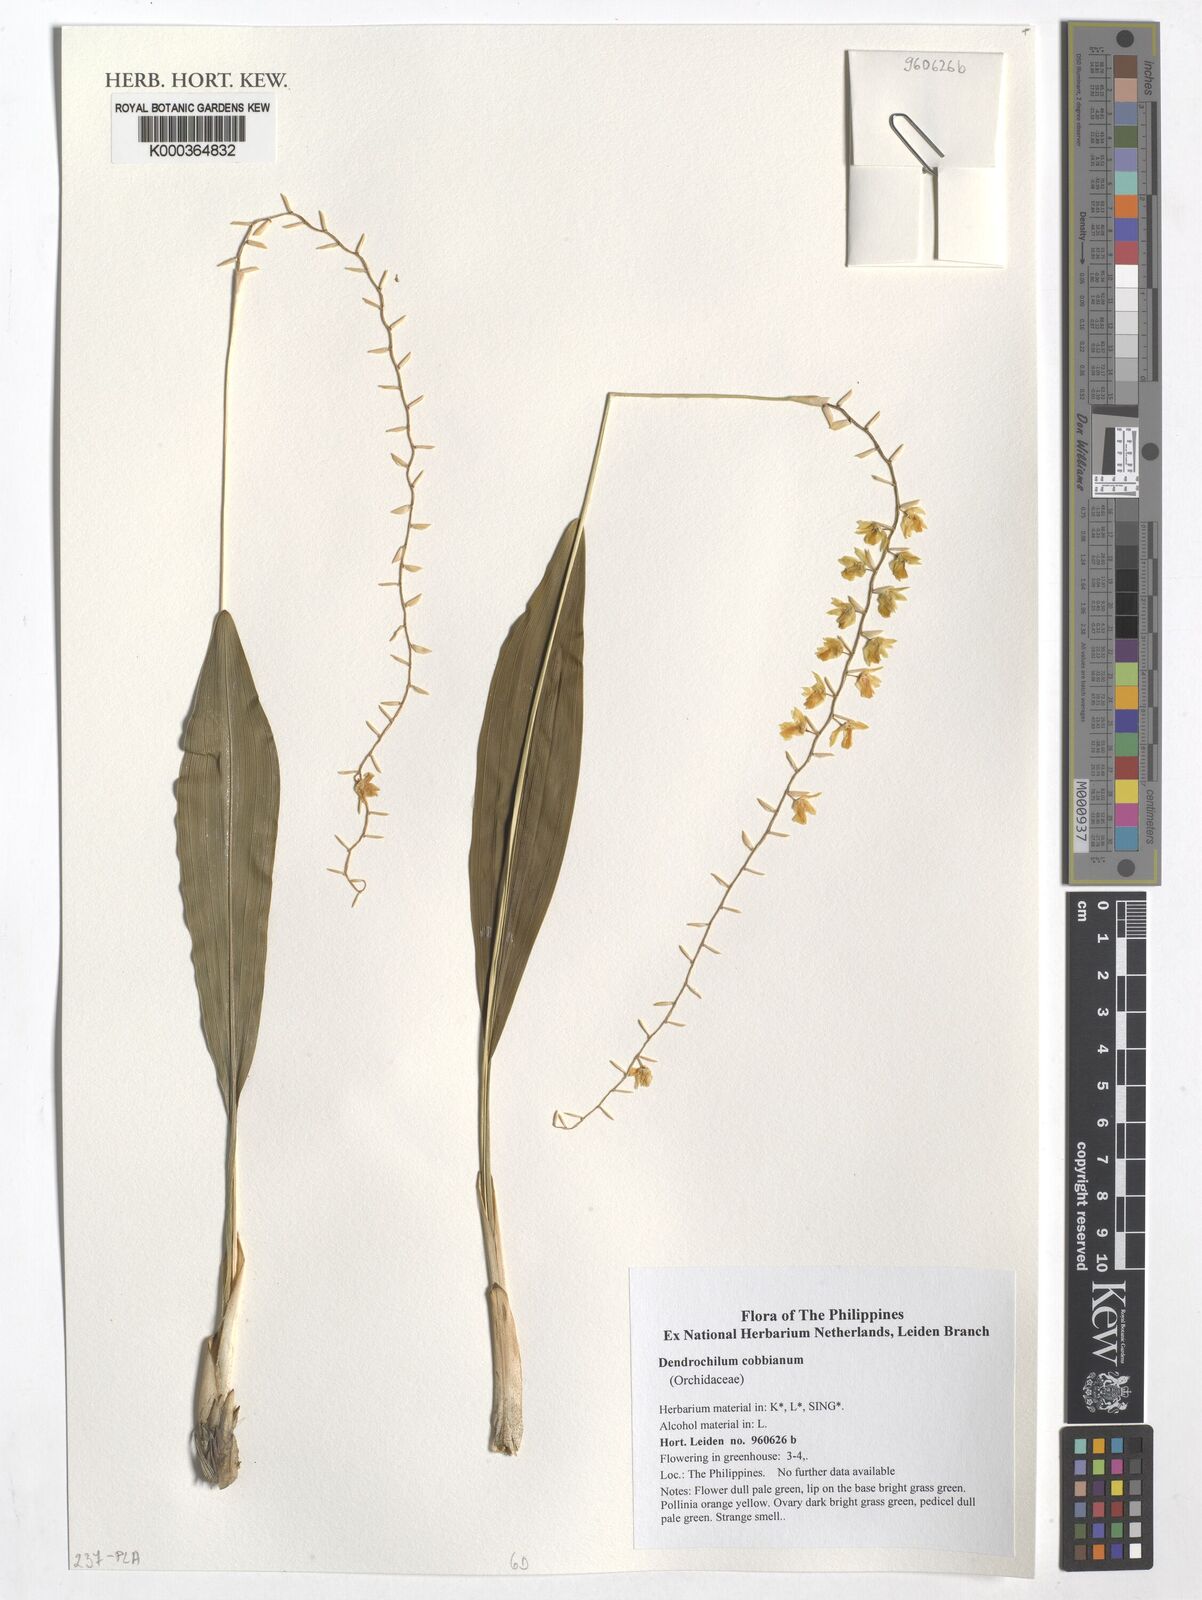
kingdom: Plantae
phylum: Tracheophyta
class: Liliopsida
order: Asparagales
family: Orchidaceae
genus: Coelogyne
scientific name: Coelogyne cobbiana
